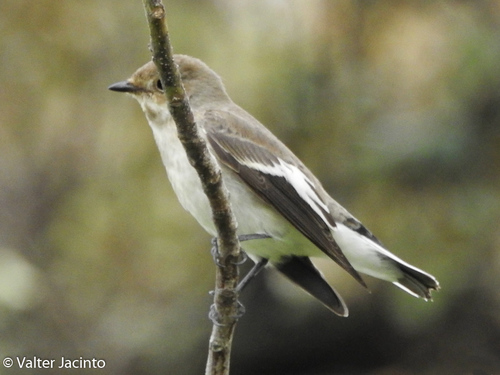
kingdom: Animalia
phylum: Chordata
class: Aves
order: Passeriformes
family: Muscicapidae
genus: Ficedula
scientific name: Ficedula hypoleuca
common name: European pied flycatcher
